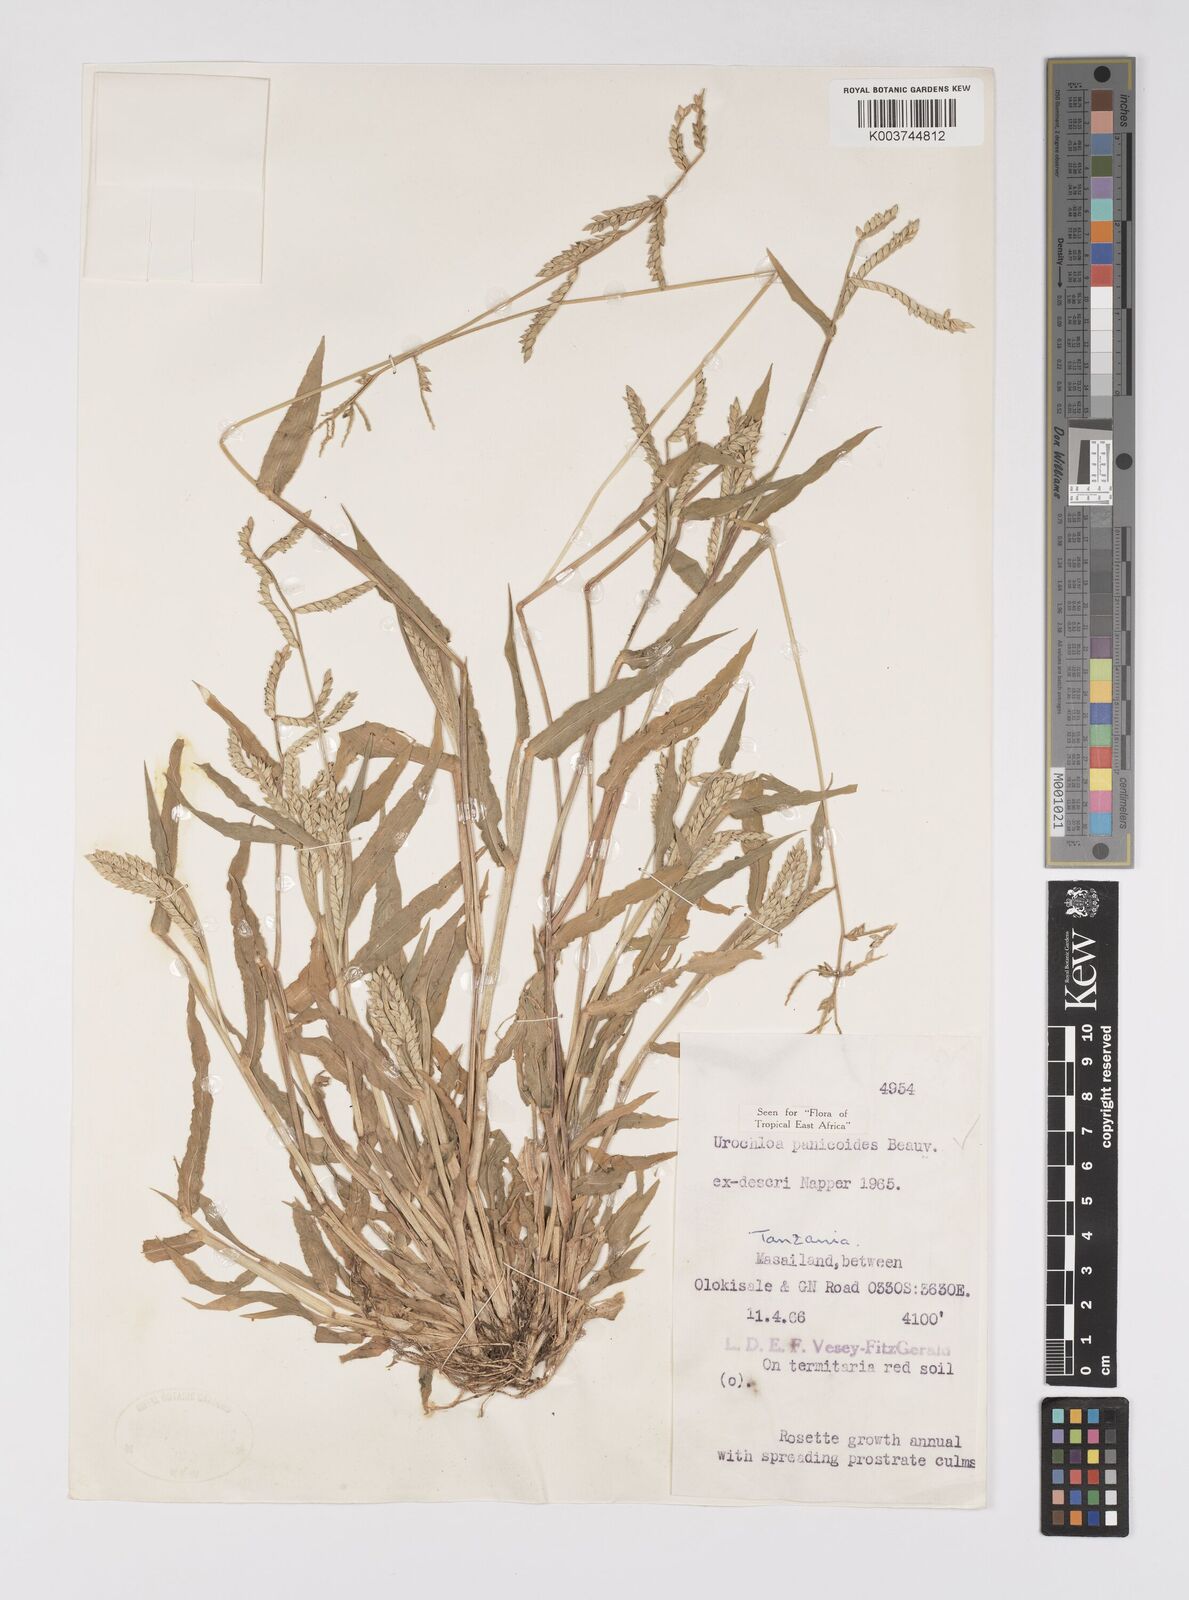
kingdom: Plantae
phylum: Tracheophyta
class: Liliopsida
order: Poales
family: Poaceae
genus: Urochloa
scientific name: Urochloa panicoides
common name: Sharp-flowered signal-grass
